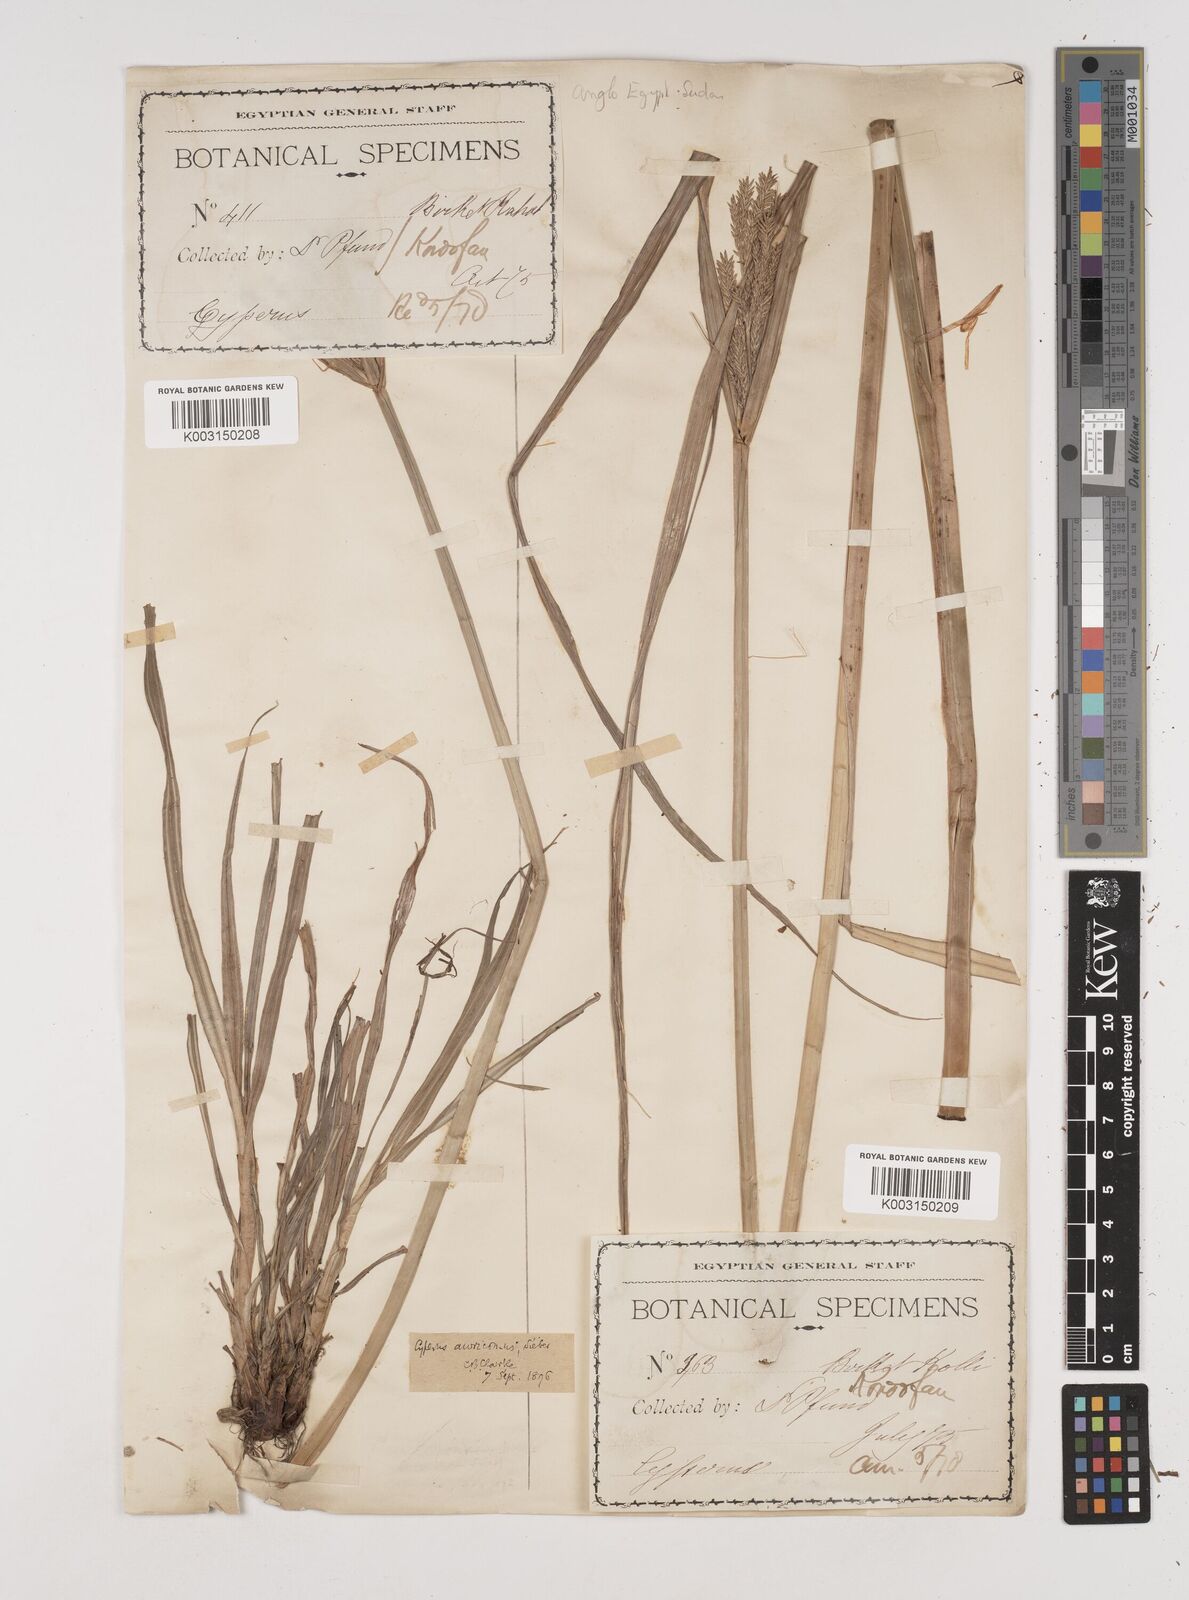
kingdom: Plantae
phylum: Tracheophyta
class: Liliopsida
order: Poales
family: Cyperaceae
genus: Cyperus
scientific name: Cyperus digitatus
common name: Finger flatsedge
